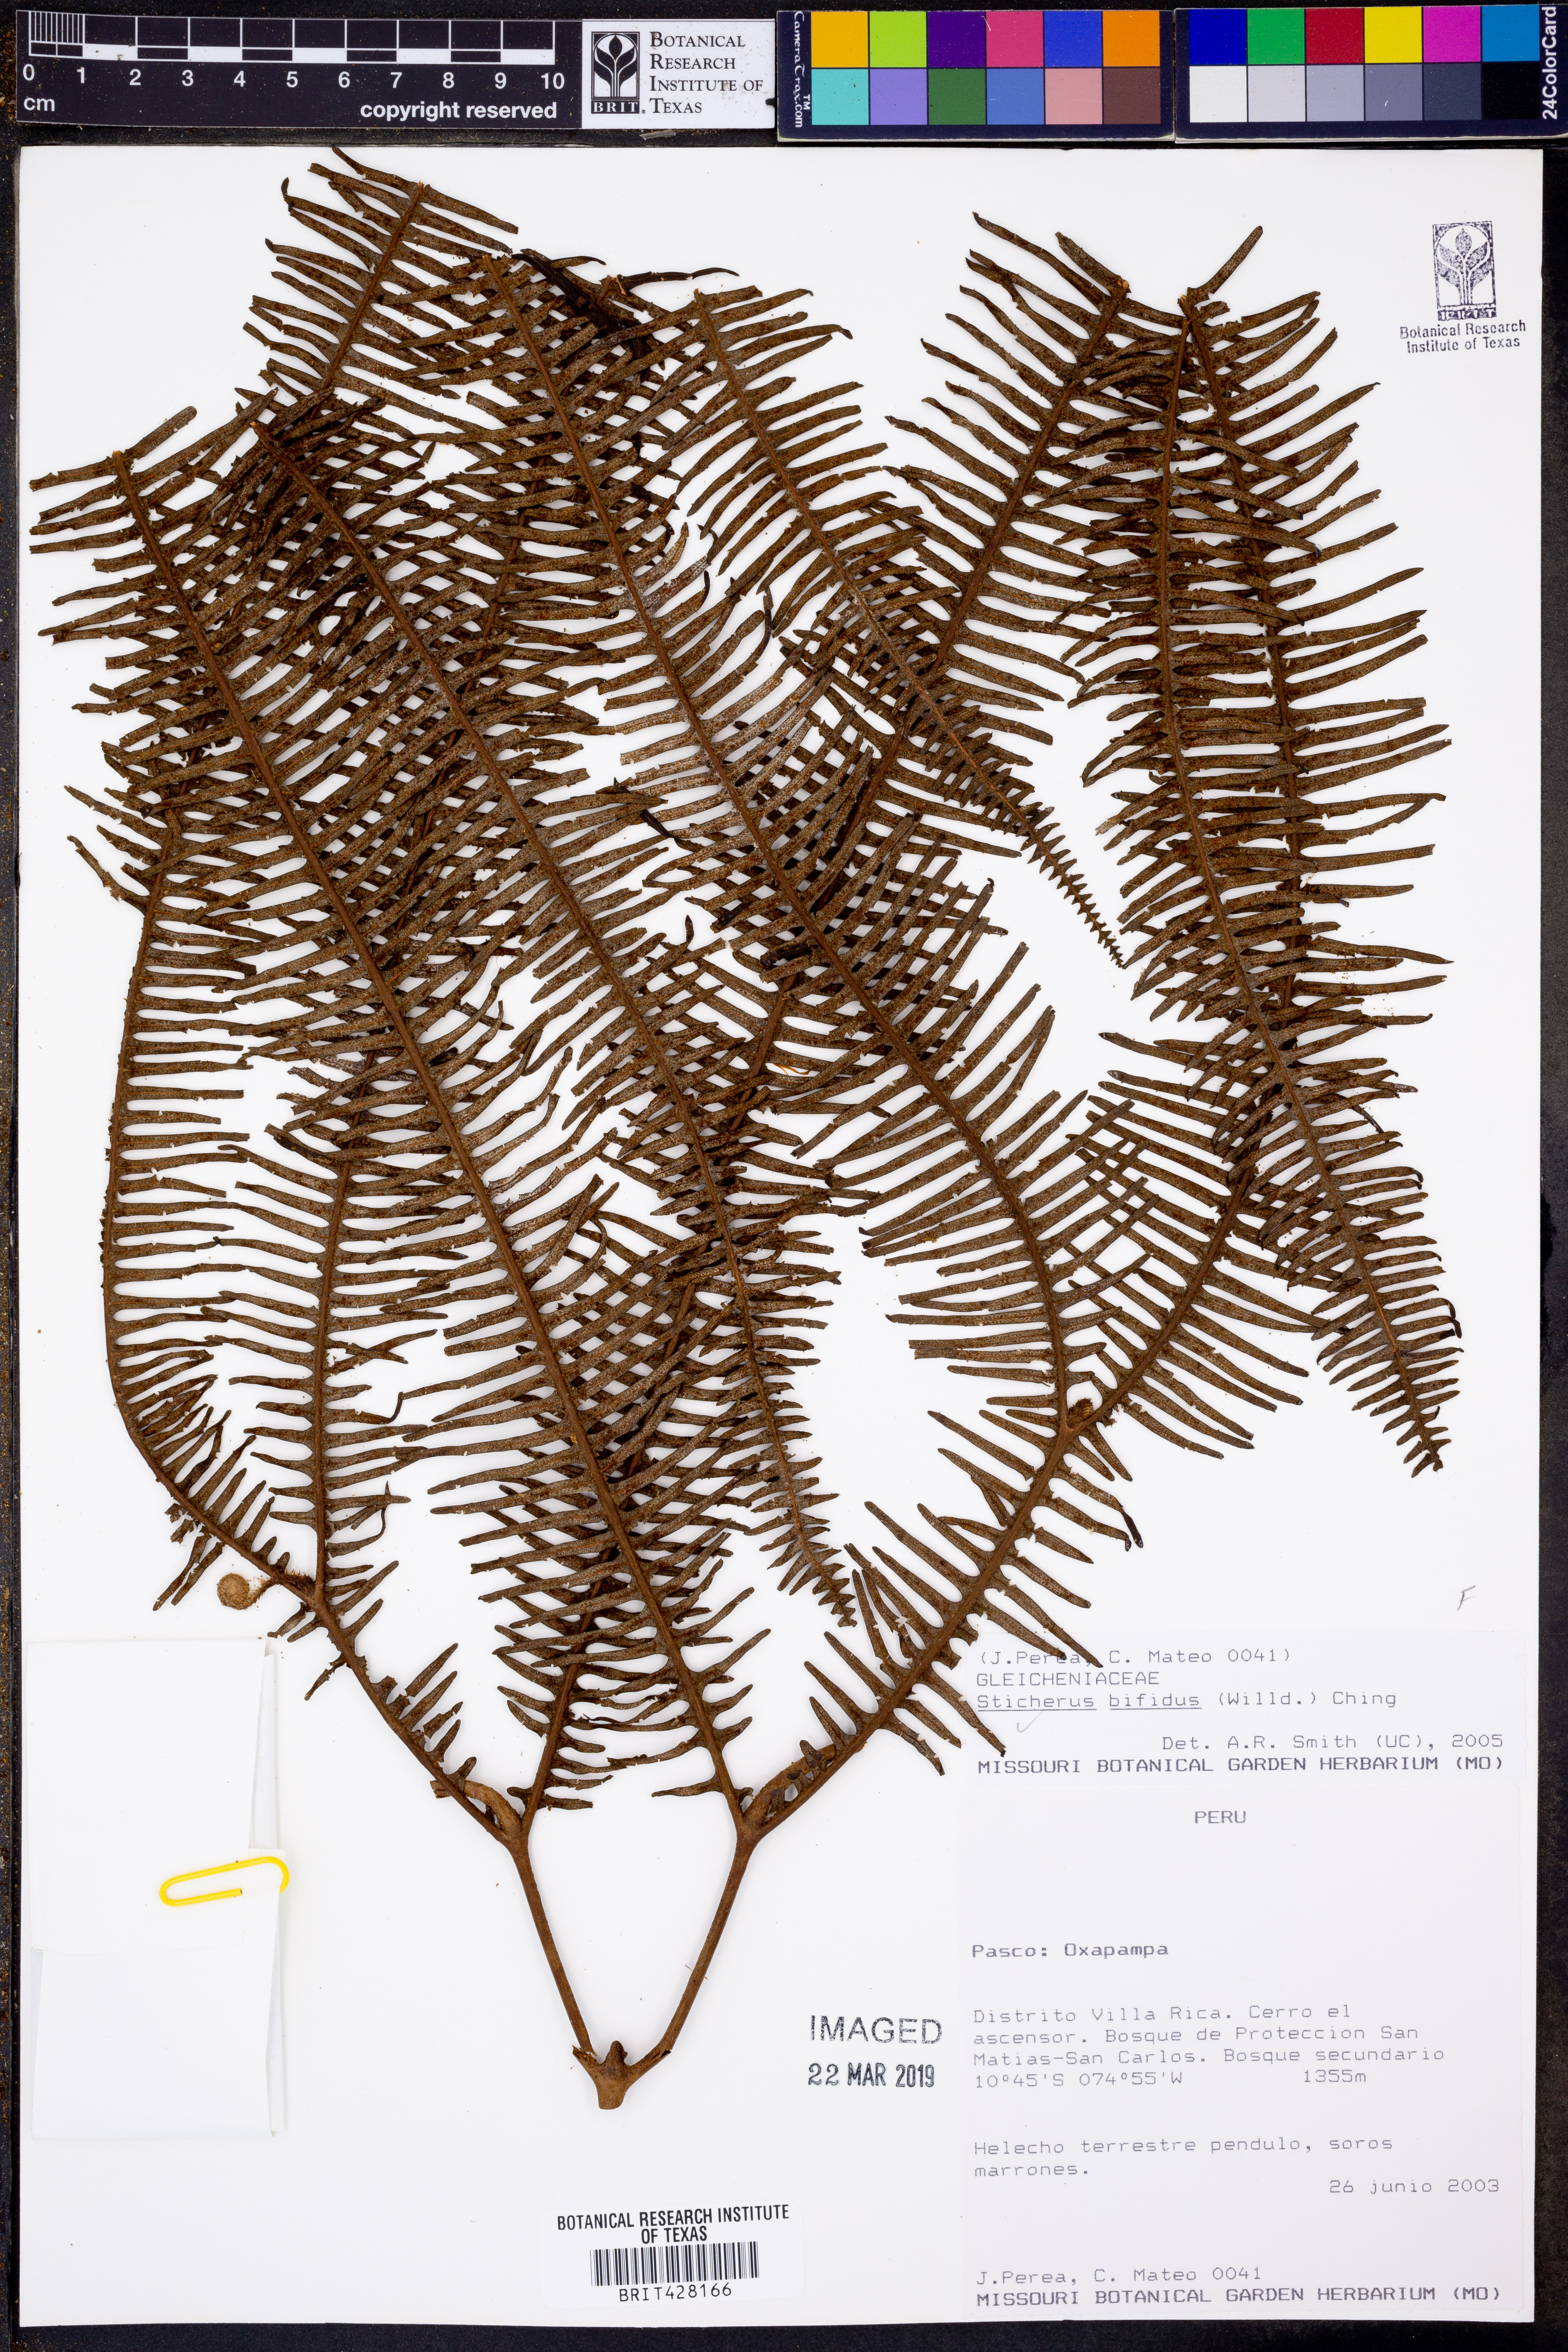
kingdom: Plantae
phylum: Tracheophyta
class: Polypodiopsida
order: Gleicheniales
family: Gleicheniaceae
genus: Sticherus
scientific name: Sticherus bifidus
